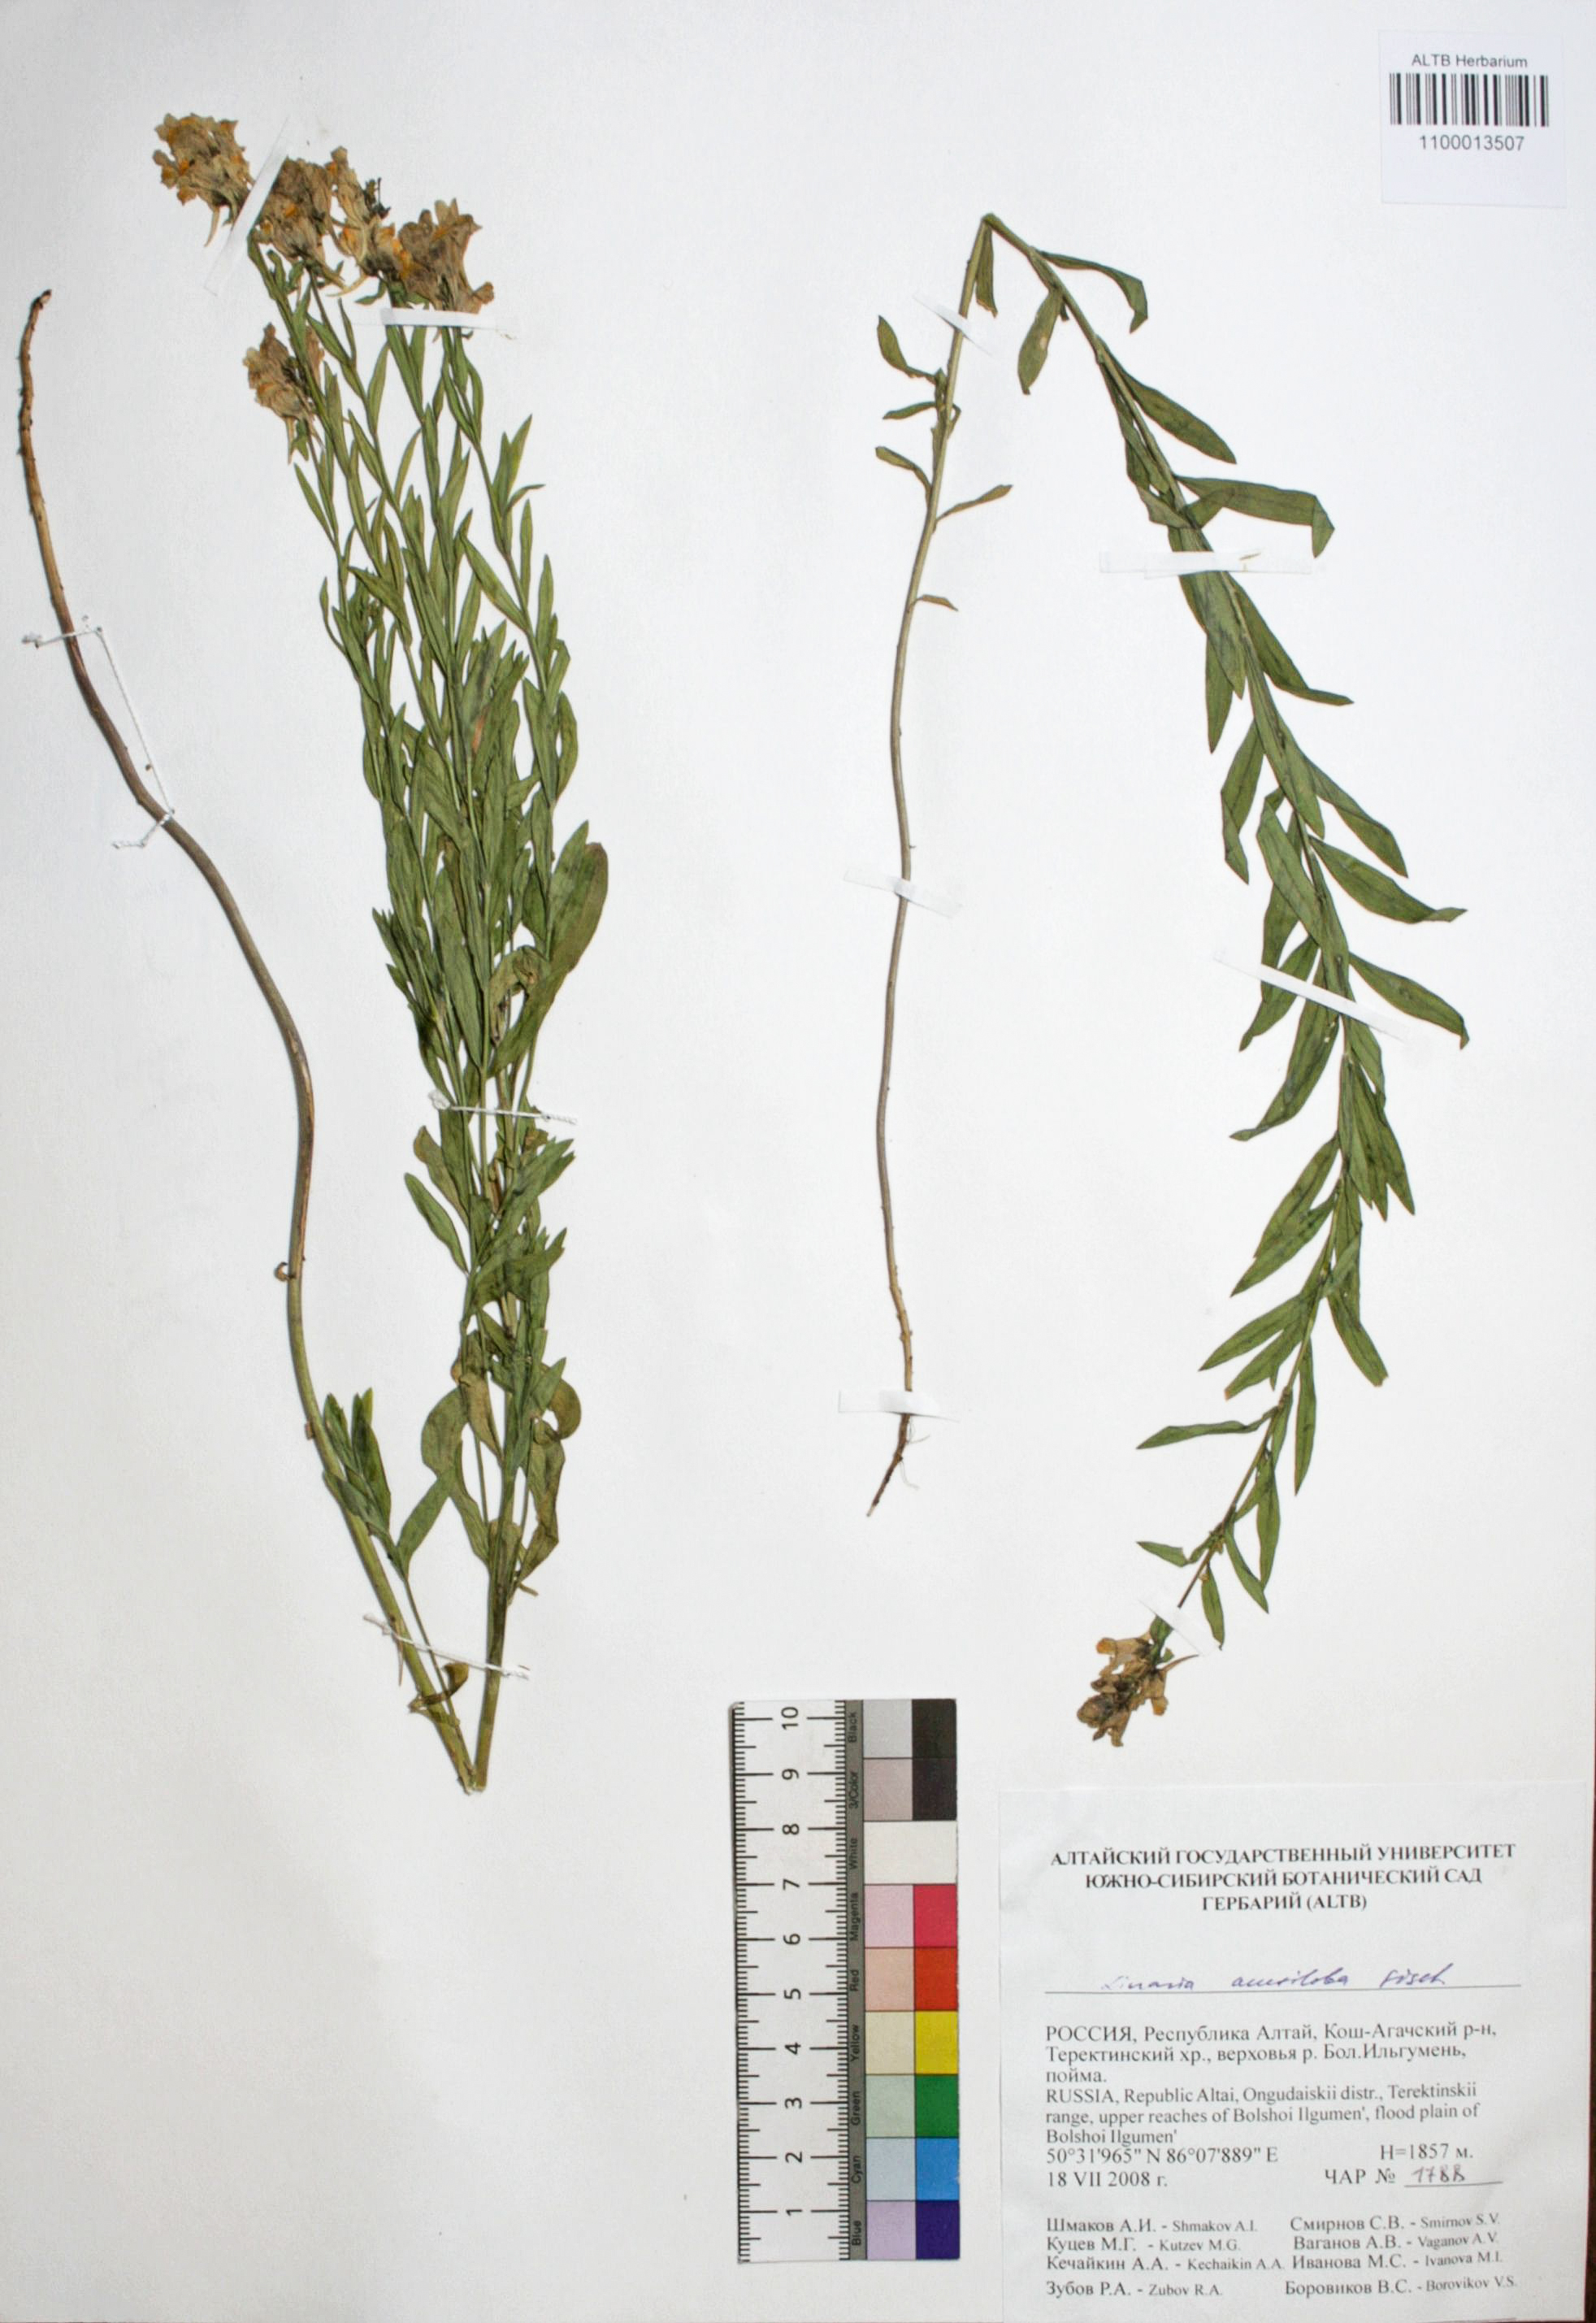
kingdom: Plantae
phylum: Tracheophyta
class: Magnoliopsida
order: Lamiales
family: Plantaginaceae
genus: Linaria
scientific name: Linaria acutiloba
